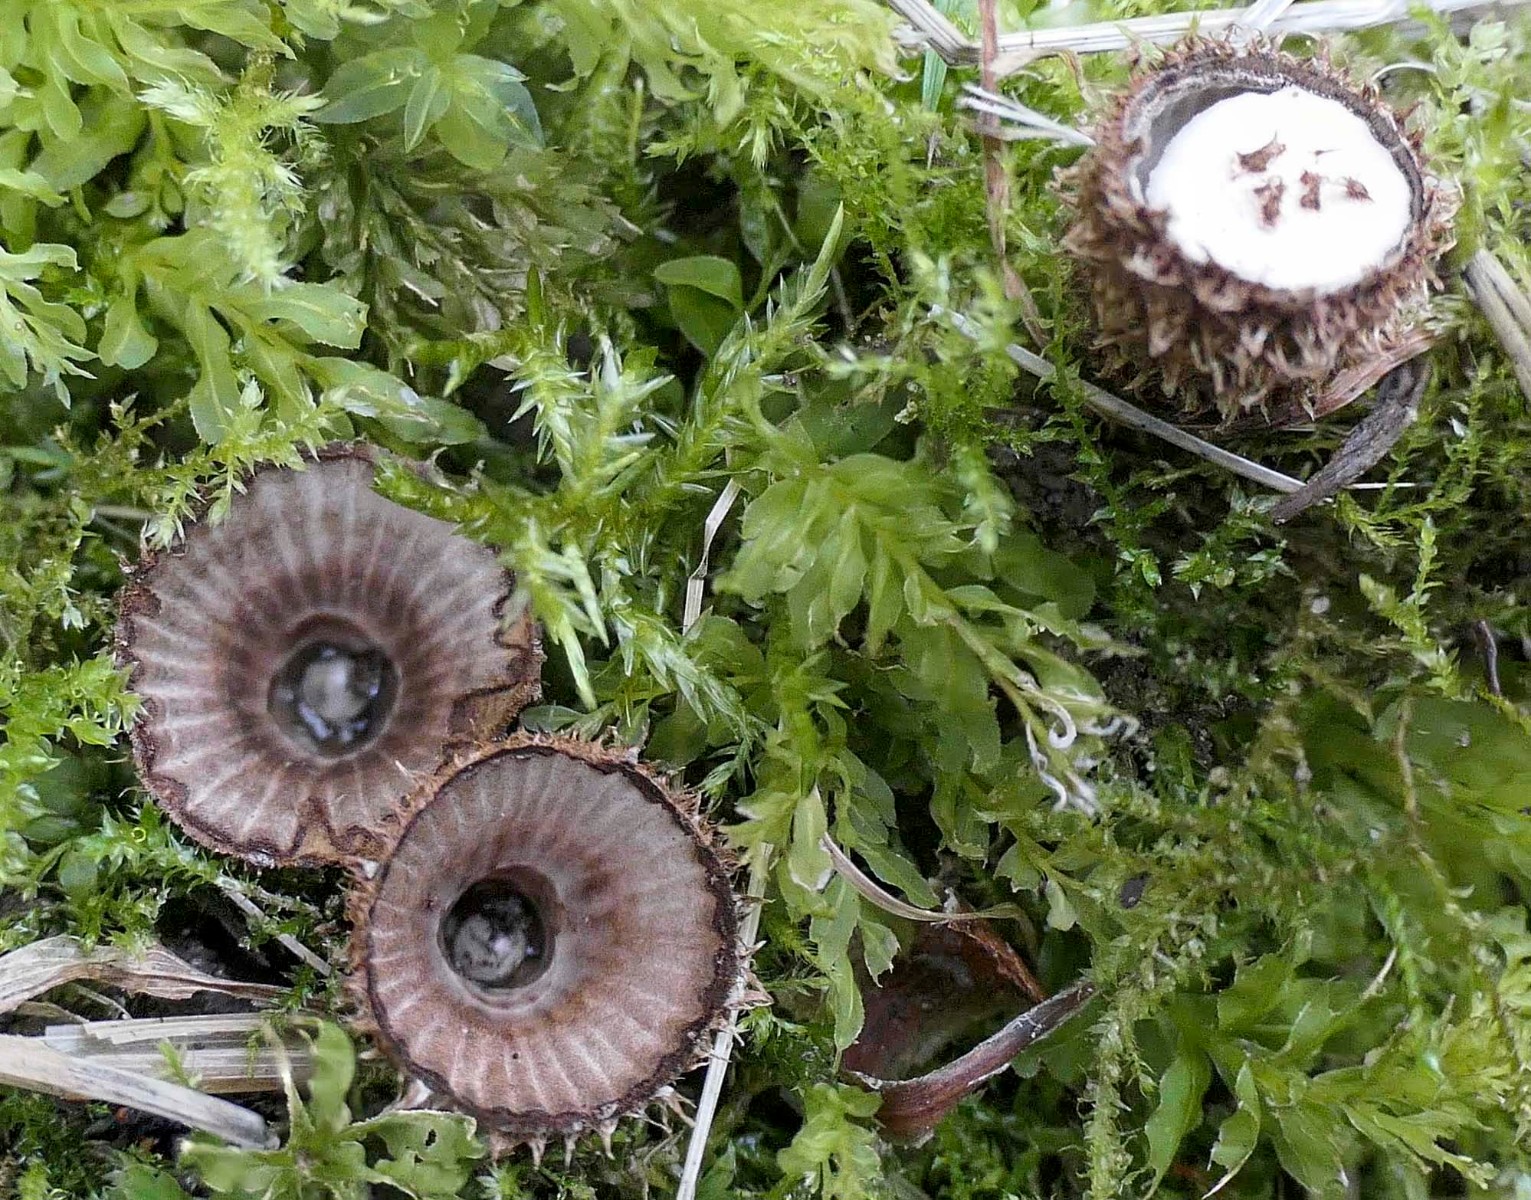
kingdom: Fungi
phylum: Basidiomycota
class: Agaricomycetes
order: Agaricales
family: Agaricaceae
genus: Cyathus
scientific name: Cyathus striatus
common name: stribet redesvamp
